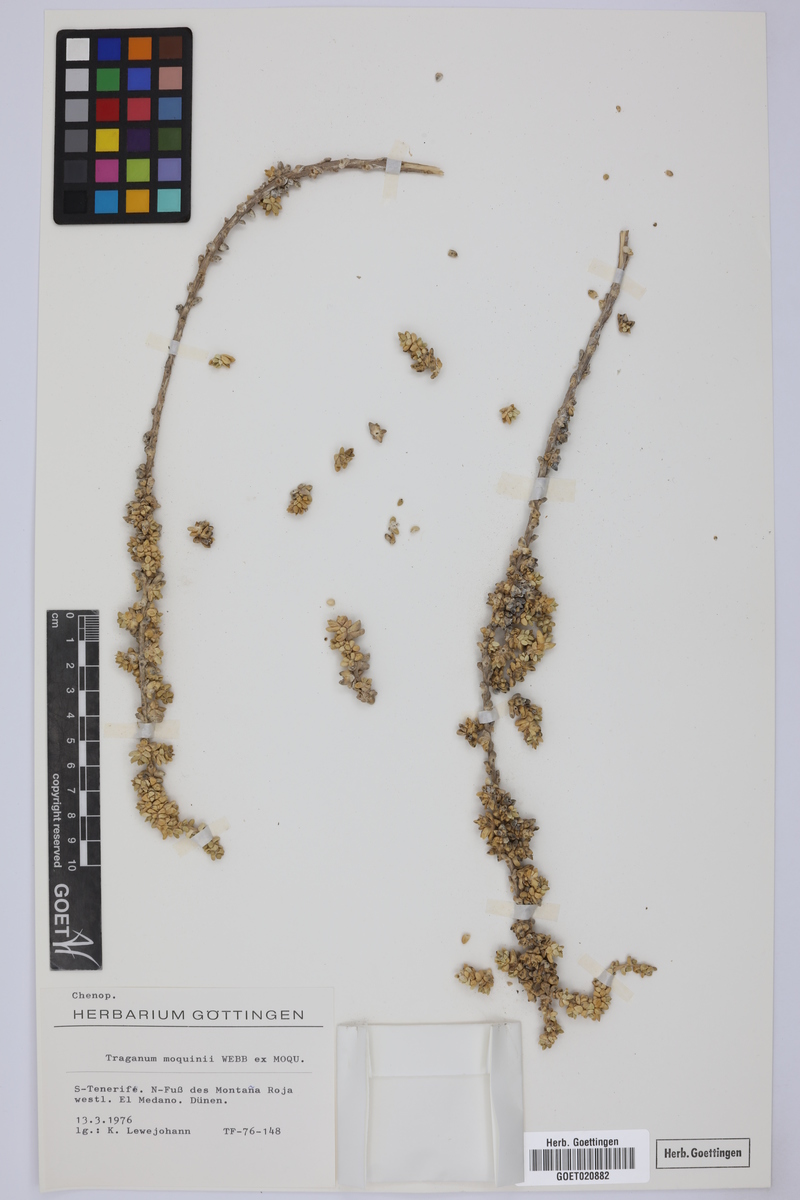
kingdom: Plantae
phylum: Tracheophyta
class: Magnoliopsida
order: Caryophyllales
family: Amaranthaceae
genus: Traganum
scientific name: Traganum moquinii
